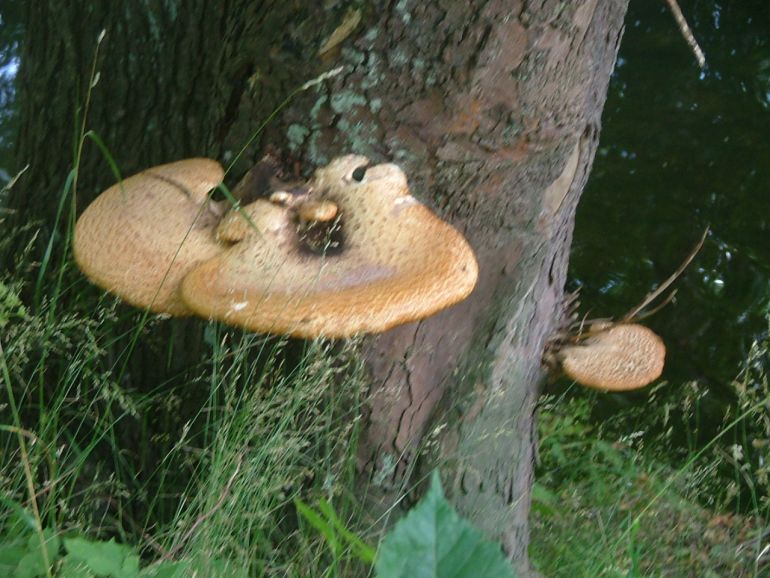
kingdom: Fungi
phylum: Basidiomycota
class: Agaricomycetes
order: Polyporales
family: Polyporaceae
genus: Cerioporus
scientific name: Cerioporus squamosus
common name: skællet stilkporesvamp
